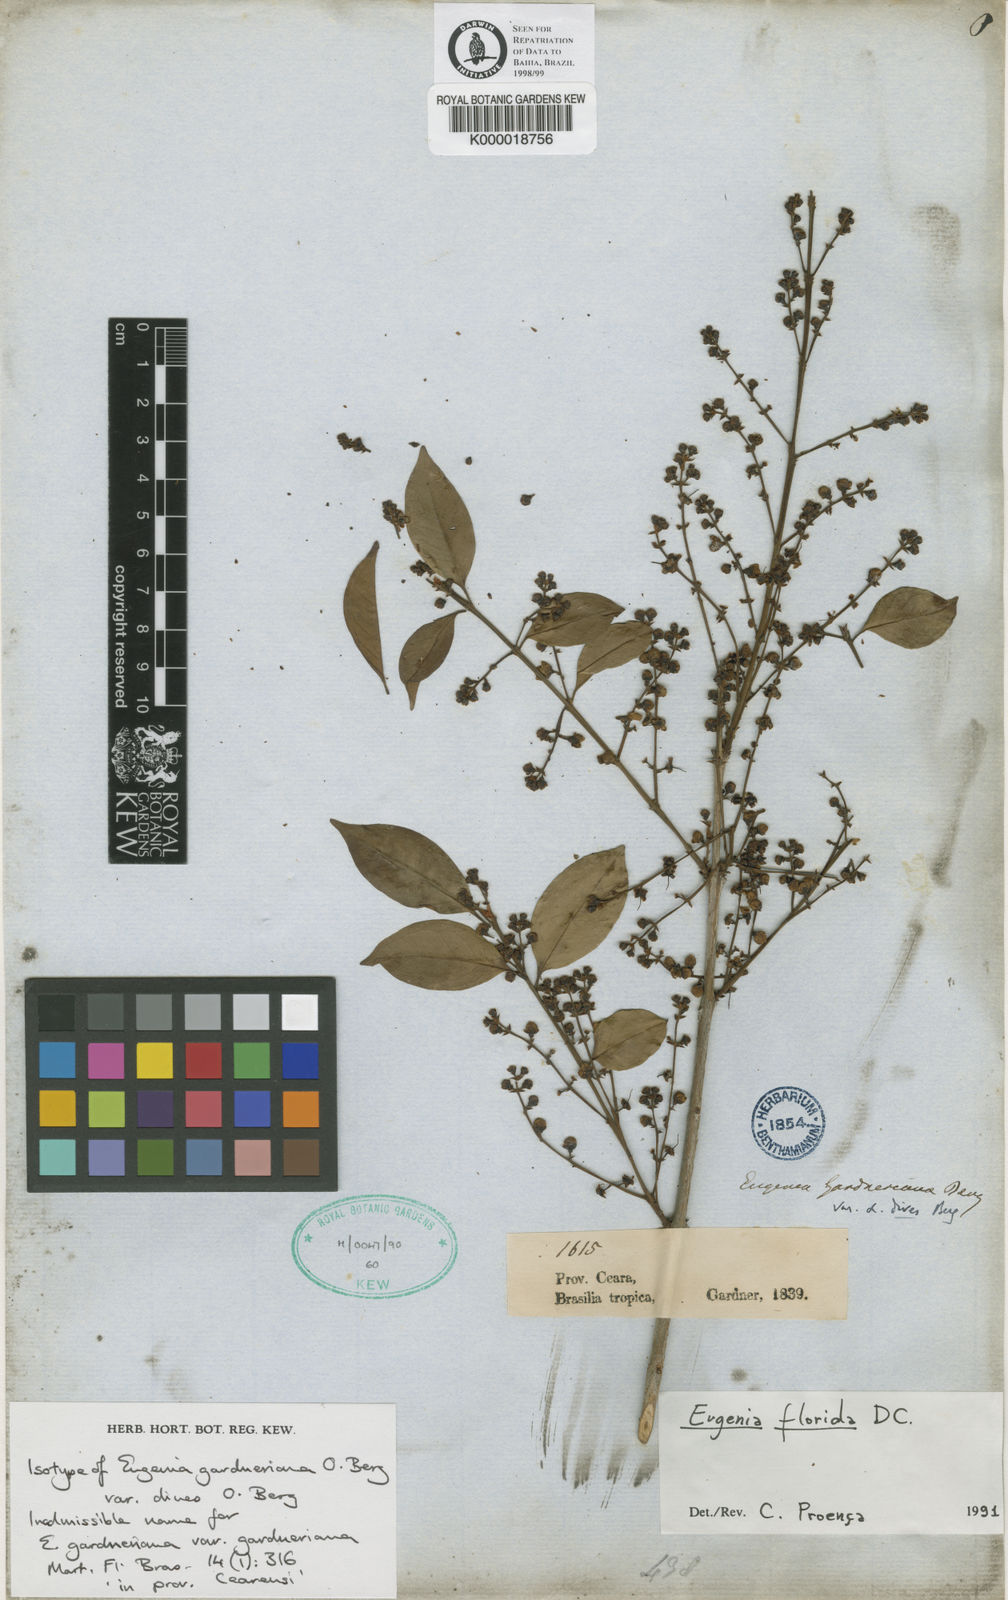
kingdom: Plantae
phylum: Tracheophyta
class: Magnoliopsida
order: Myrtales
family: Myrtaceae
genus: Eugenia
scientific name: Eugenia florida
